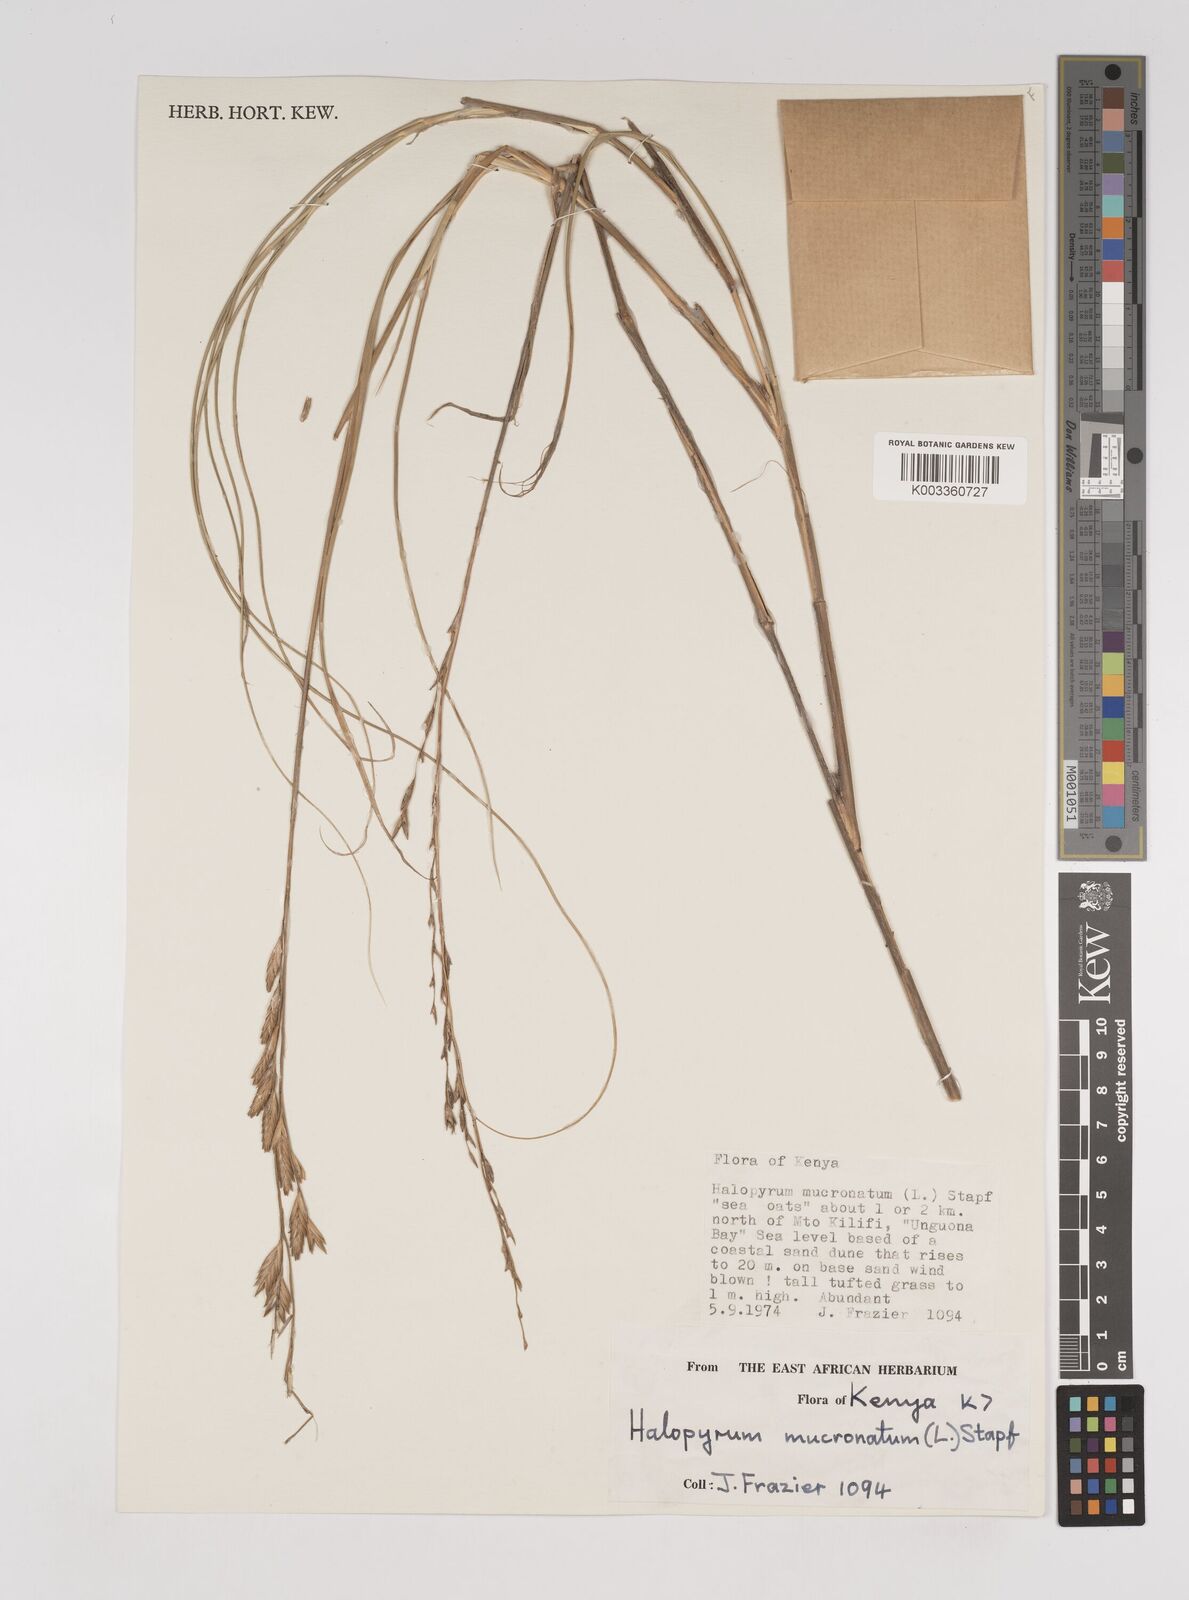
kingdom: Plantae
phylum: Tracheophyta
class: Liliopsida
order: Poales
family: Poaceae
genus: Halopyrum
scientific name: Halopyrum mucronatum
